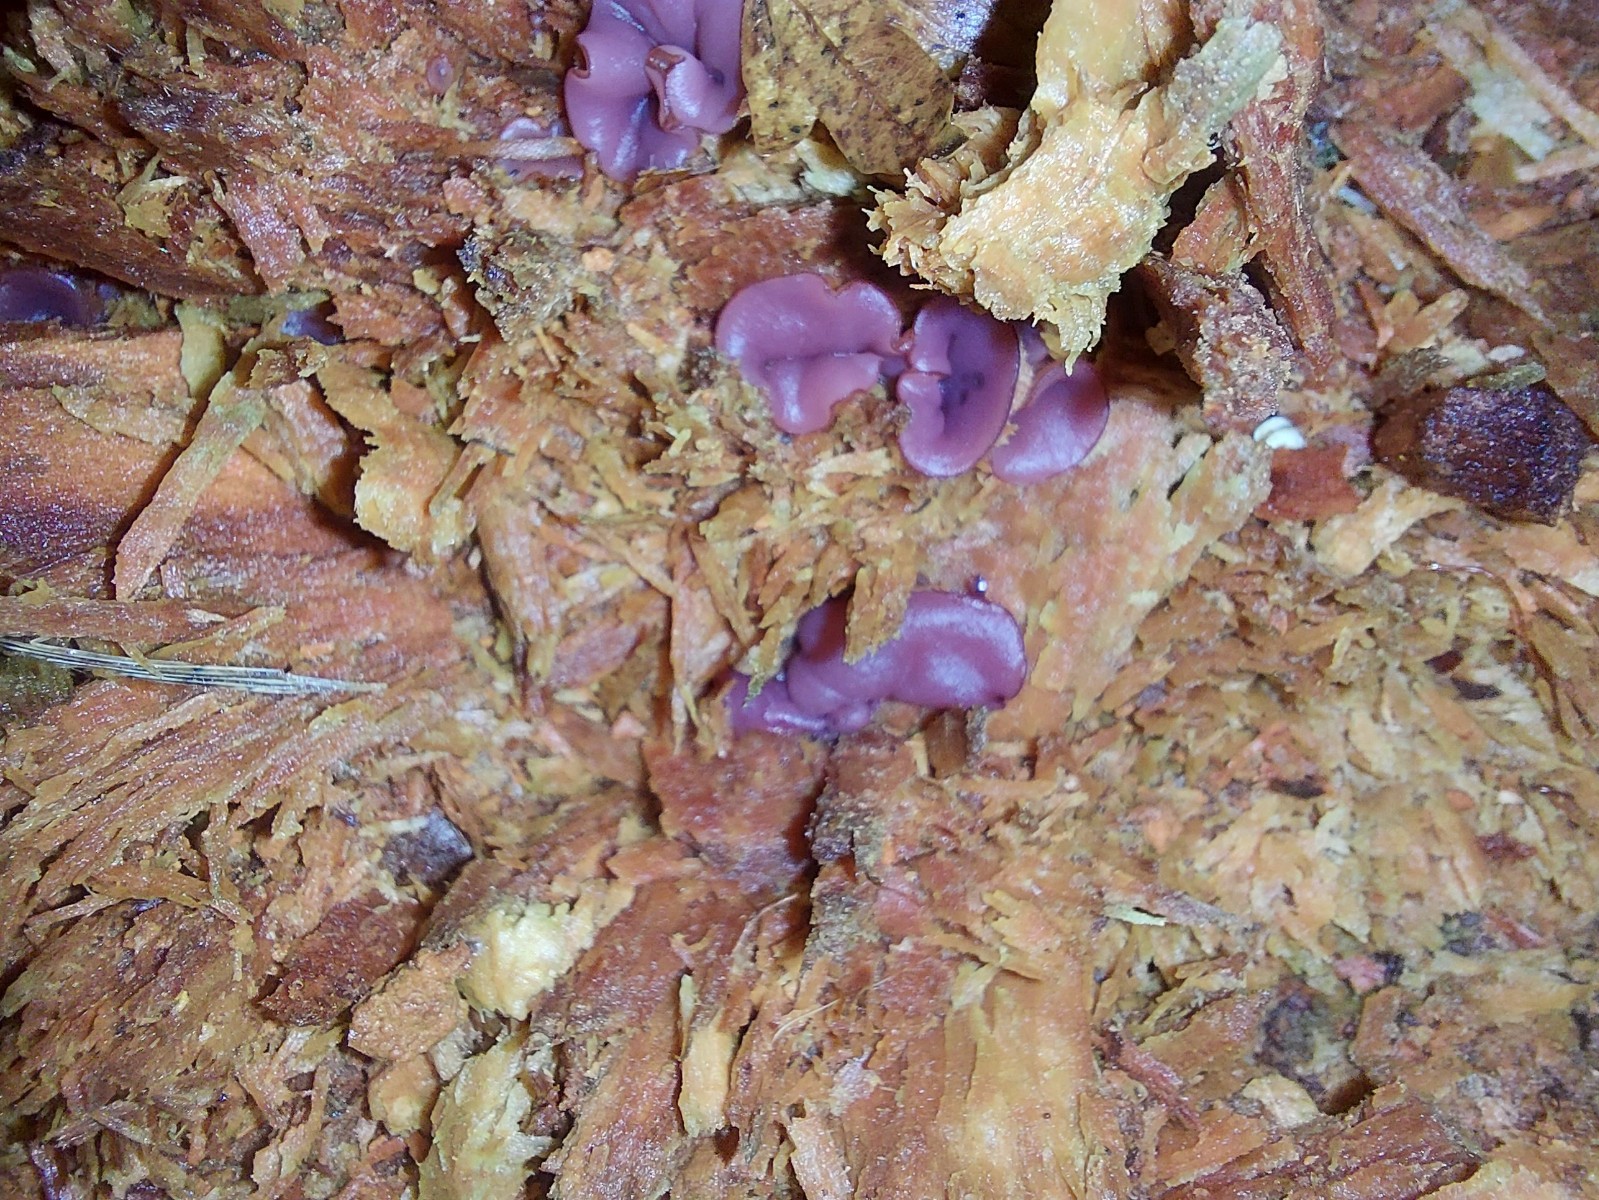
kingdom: Fungi
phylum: Ascomycota
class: Leotiomycetes
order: Helotiales
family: Gelatinodiscaceae
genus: Ascocoryne
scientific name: Ascocoryne cylichnium
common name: stor sejskive
